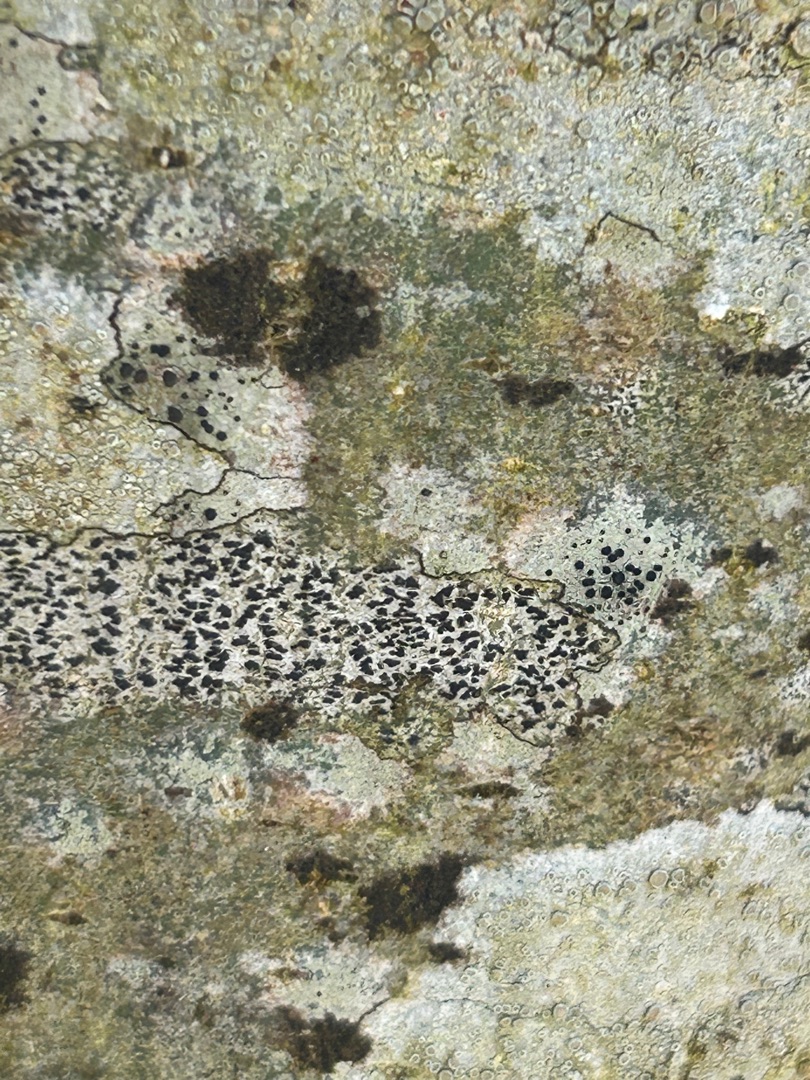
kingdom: Fungi
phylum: Ascomycota
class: Arthoniomycetes
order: Arthoniales
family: Arthoniaceae
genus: Arthonia
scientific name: Arthonia radiata
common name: Stjerne-pletlav
